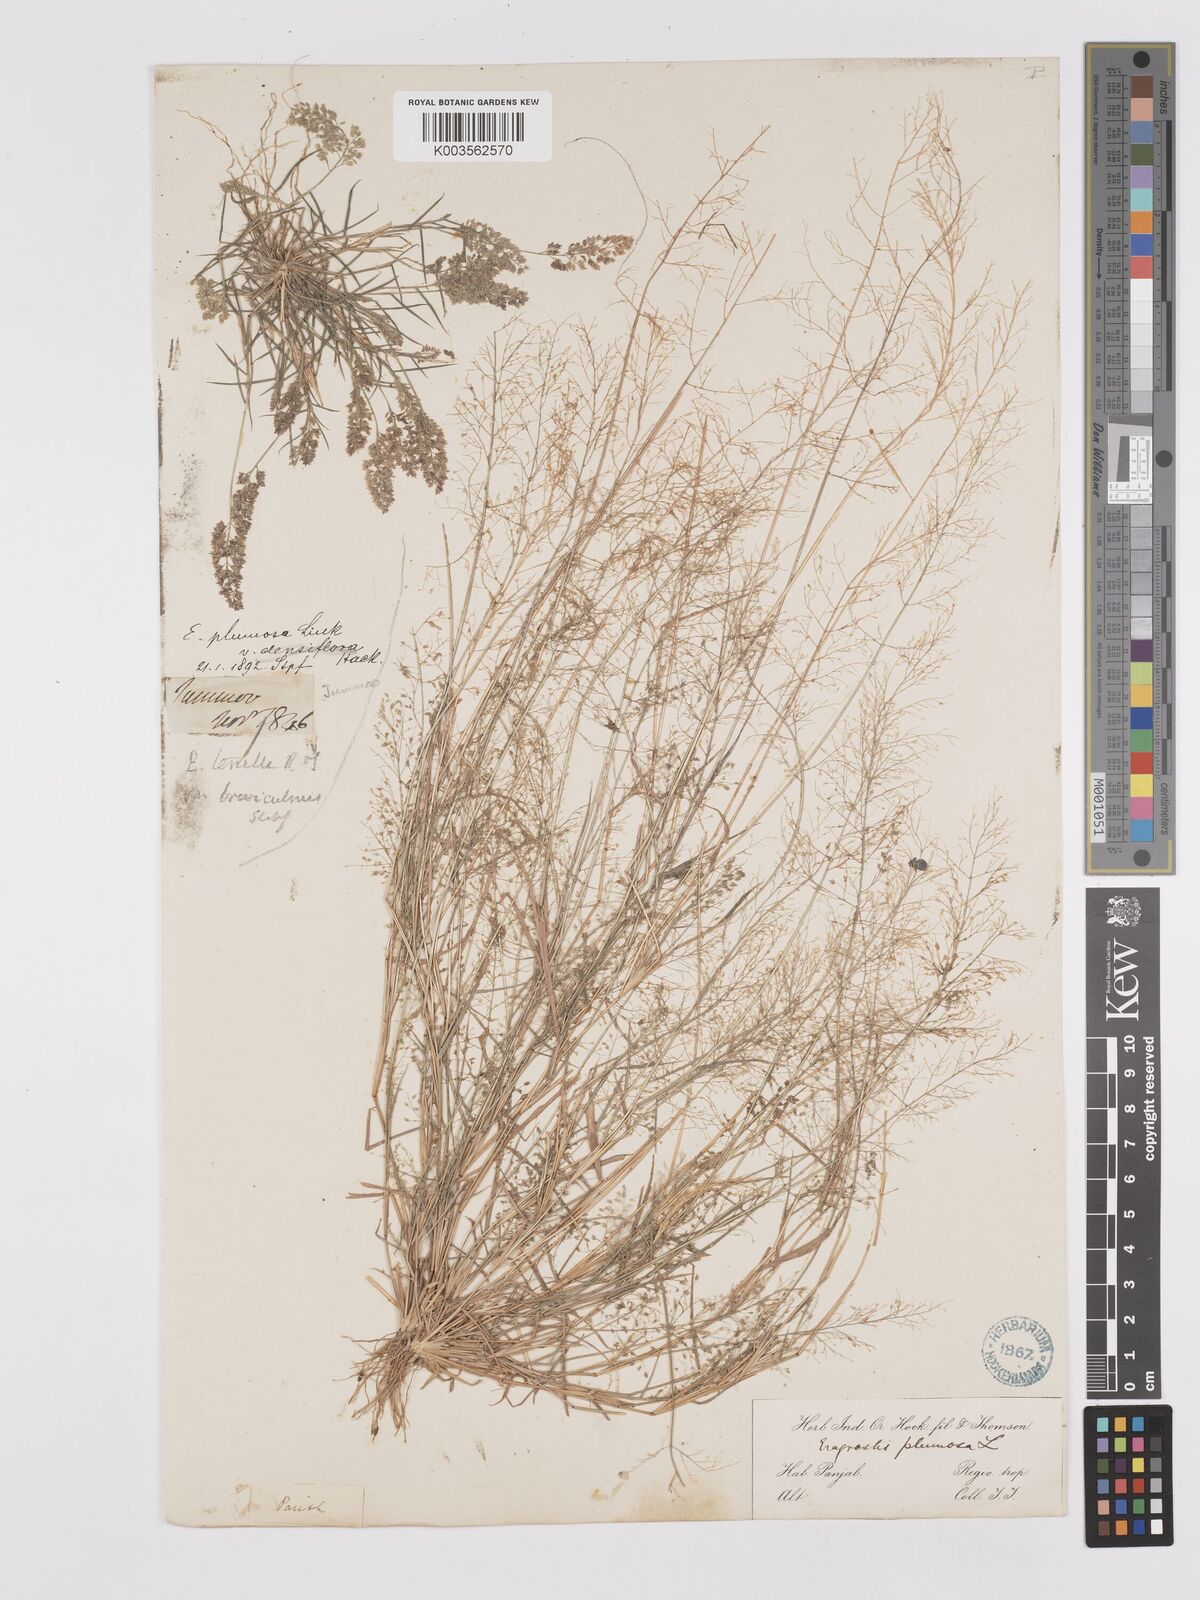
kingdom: Plantae
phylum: Tracheophyta
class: Liliopsida
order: Poales
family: Poaceae
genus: Eragrostis
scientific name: Eragrostis tenella
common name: Japanese lovegrass
